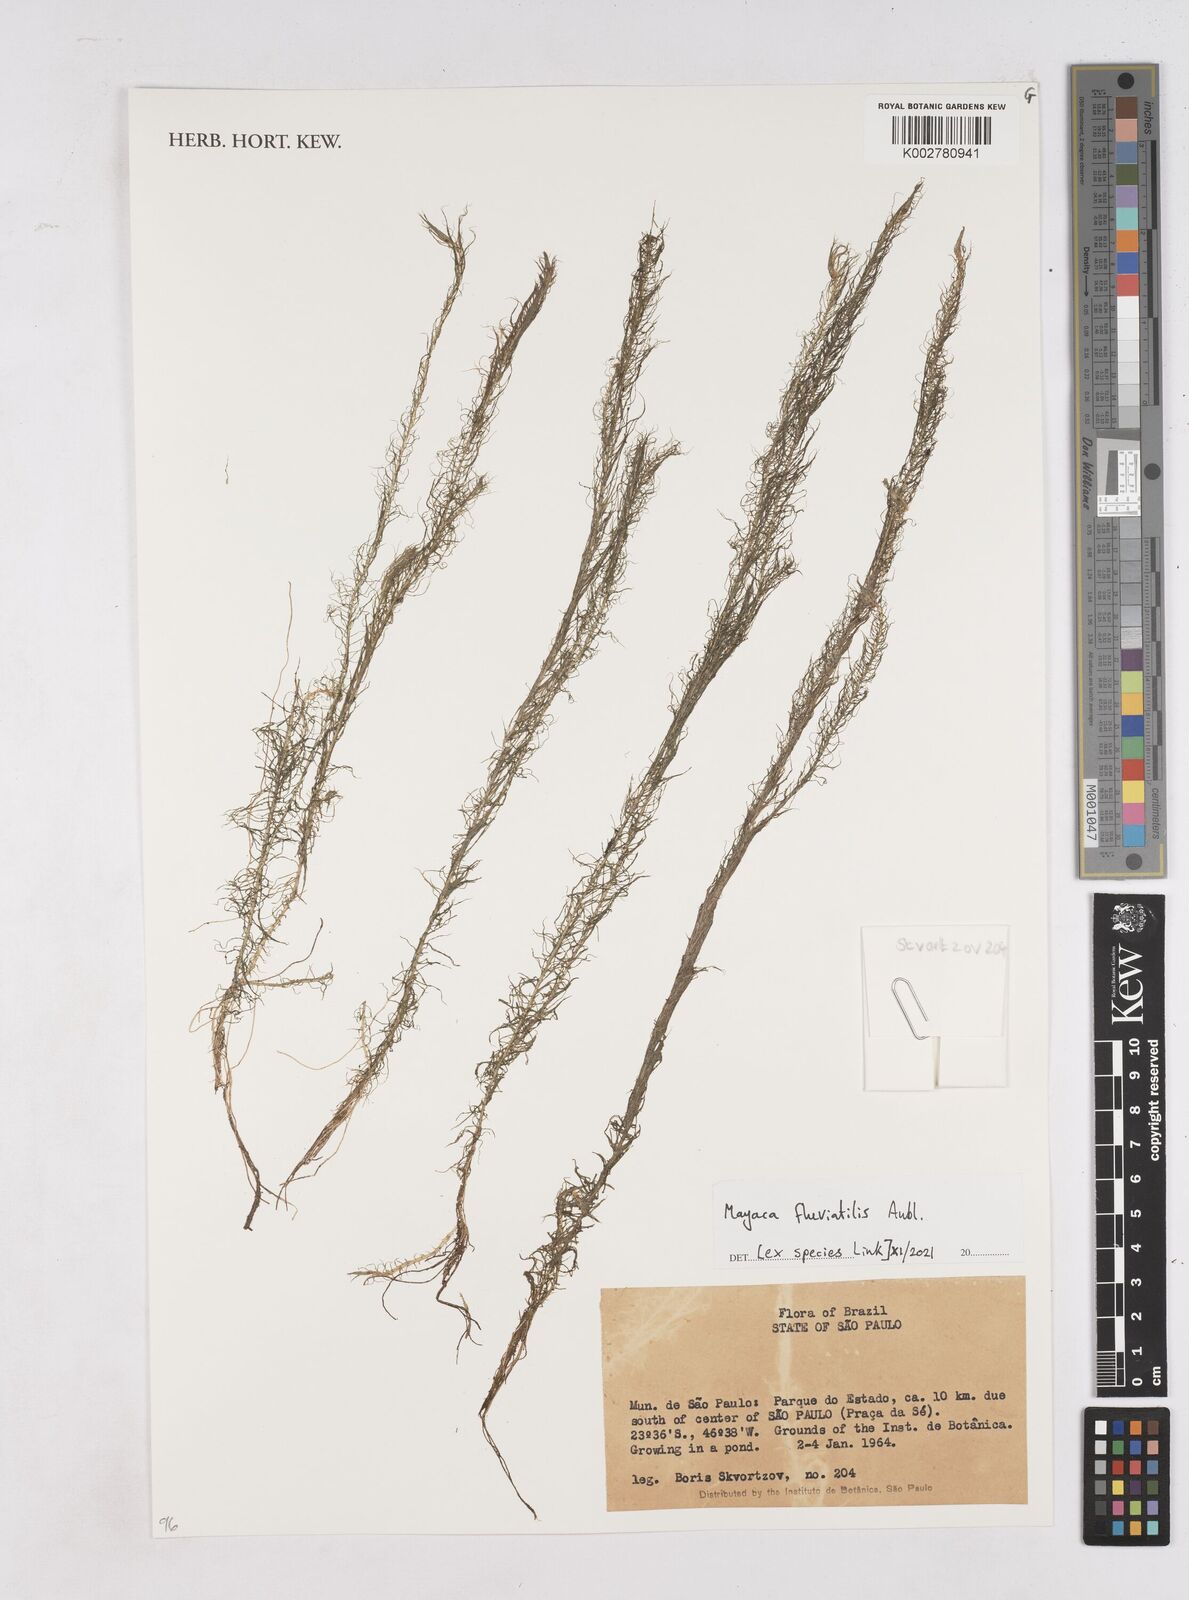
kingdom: Plantae
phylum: Tracheophyta
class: Liliopsida
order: Poales
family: Mayacaceae
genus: Mayaca
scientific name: Mayaca fluviatilis
